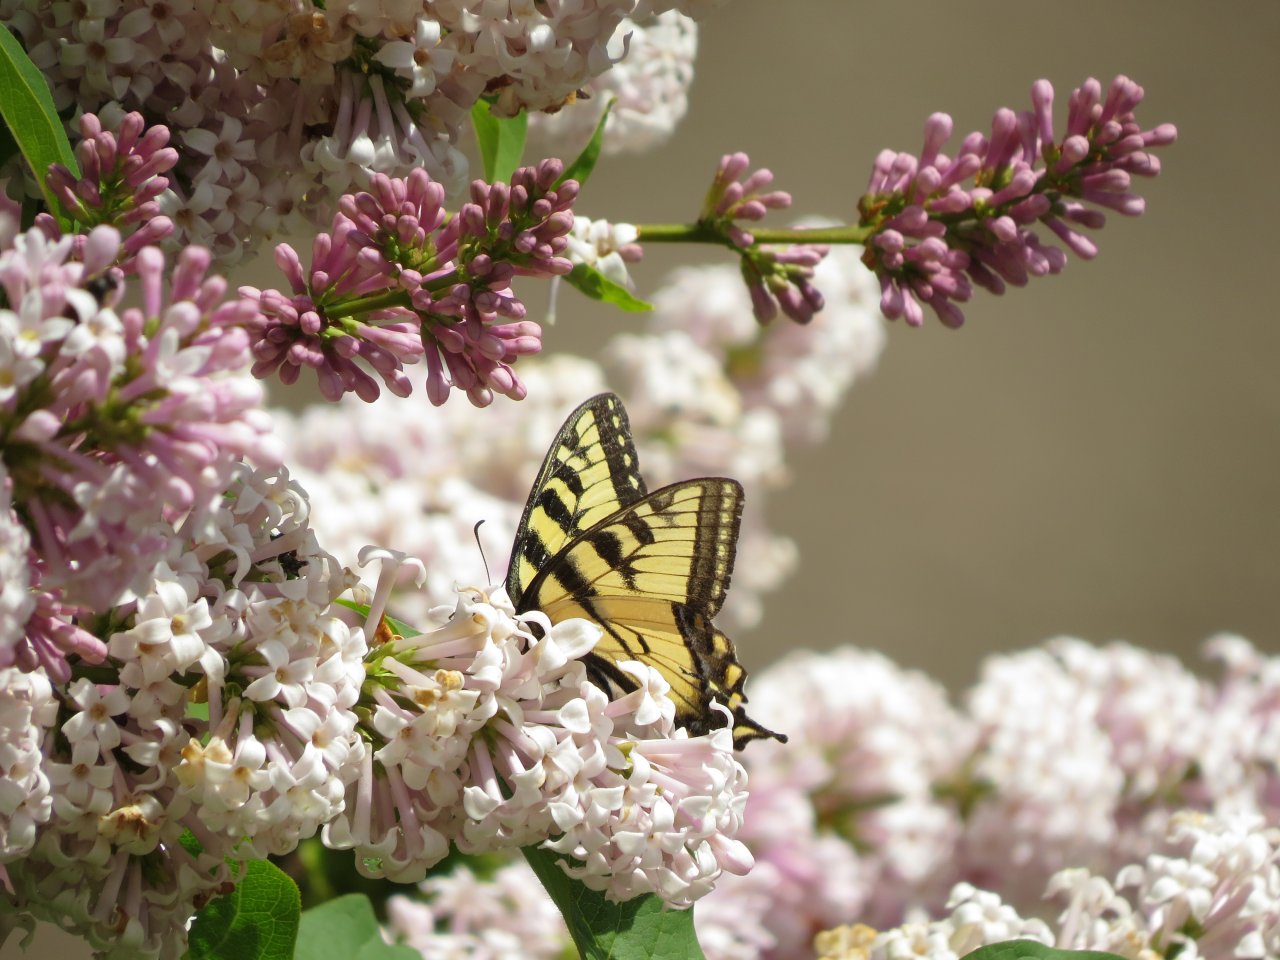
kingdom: Animalia
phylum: Arthropoda
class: Insecta
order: Lepidoptera
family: Papilionidae
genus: Pterourus
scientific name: Pterourus canadensis
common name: Canadian Tiger Swallowtail
